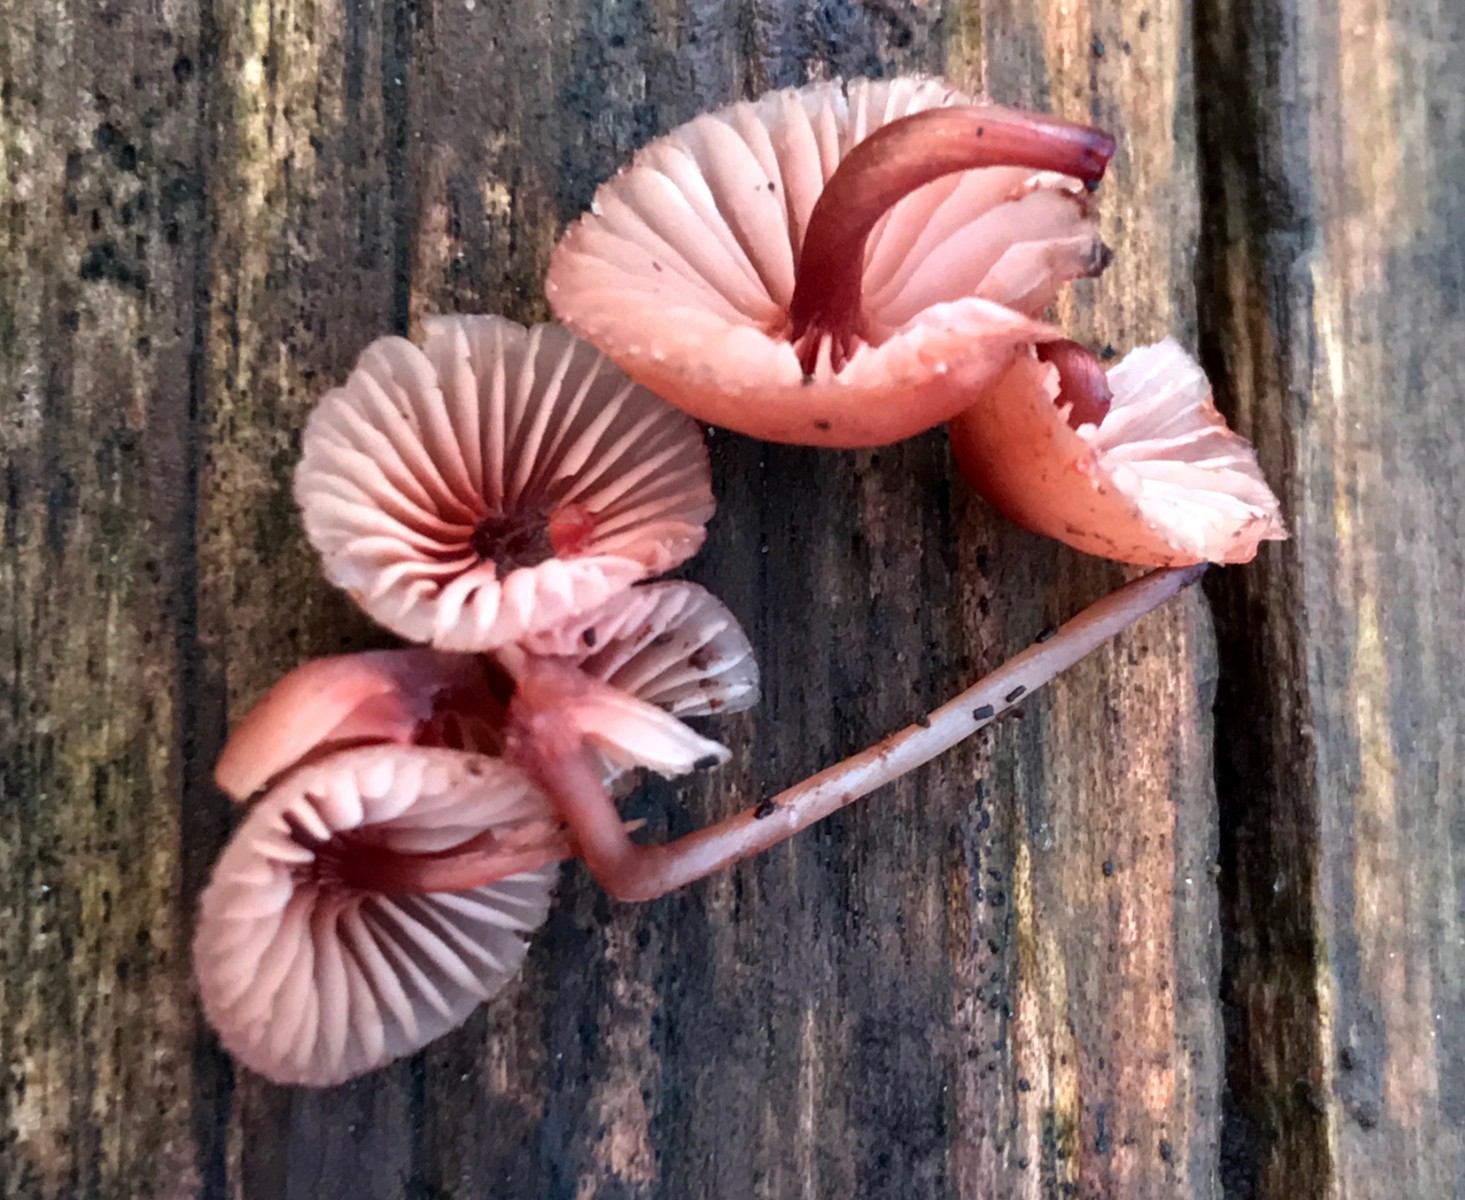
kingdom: Fungi
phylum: Basidiomycota
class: Agaricomycetes
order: Agaricales
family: Mycenaceae
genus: Mycena
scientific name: Mycena haematopus
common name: blødende huesvamp
